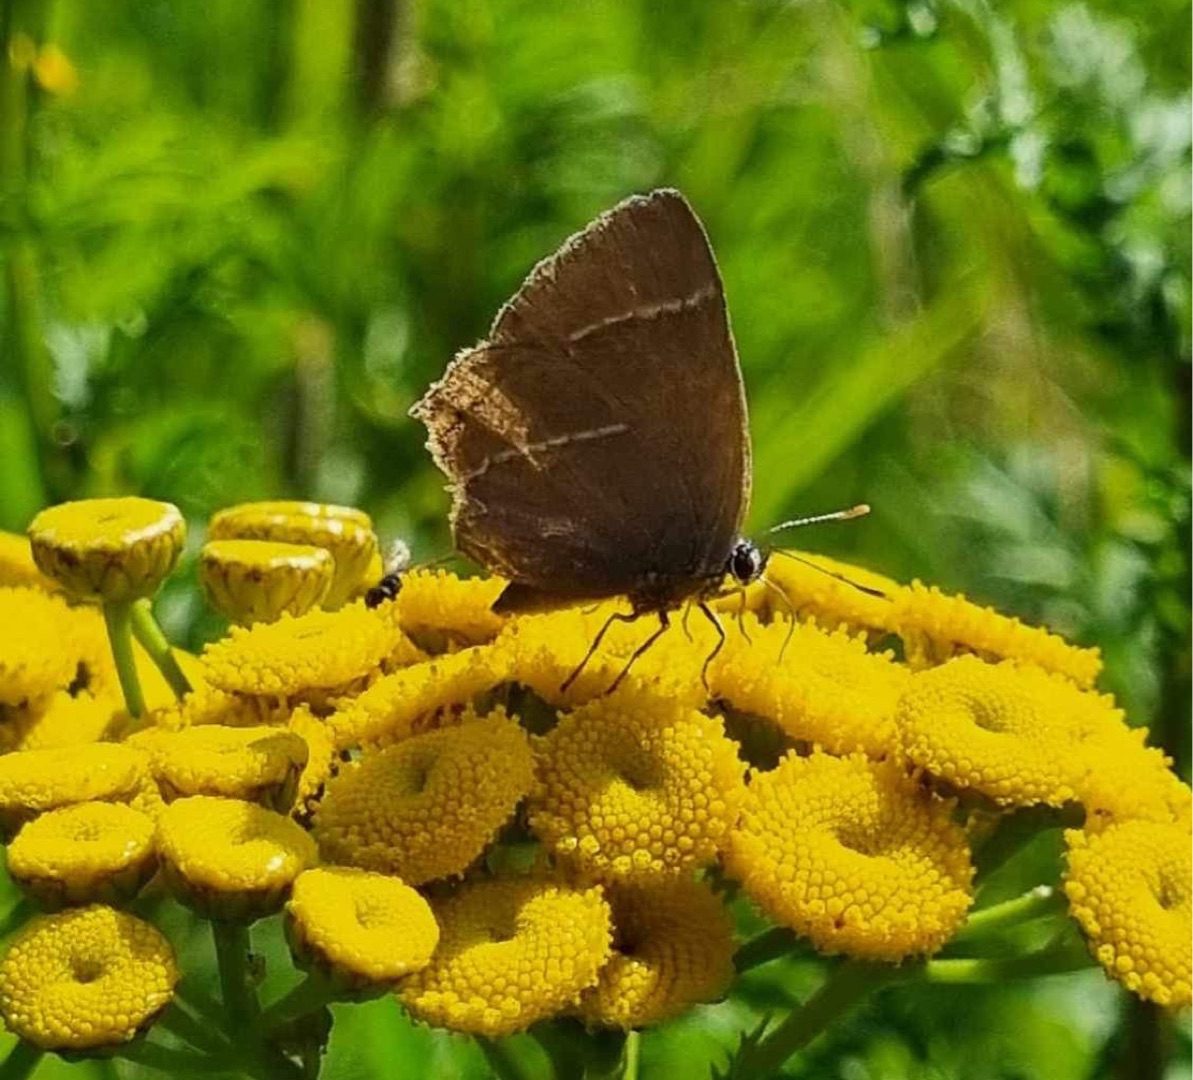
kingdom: Animalia
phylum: Arthropoda
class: Insecta
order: Lepidoptera
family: Lycaenidae
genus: Satyrium
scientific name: Satyrium w-album
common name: Det hvide W
